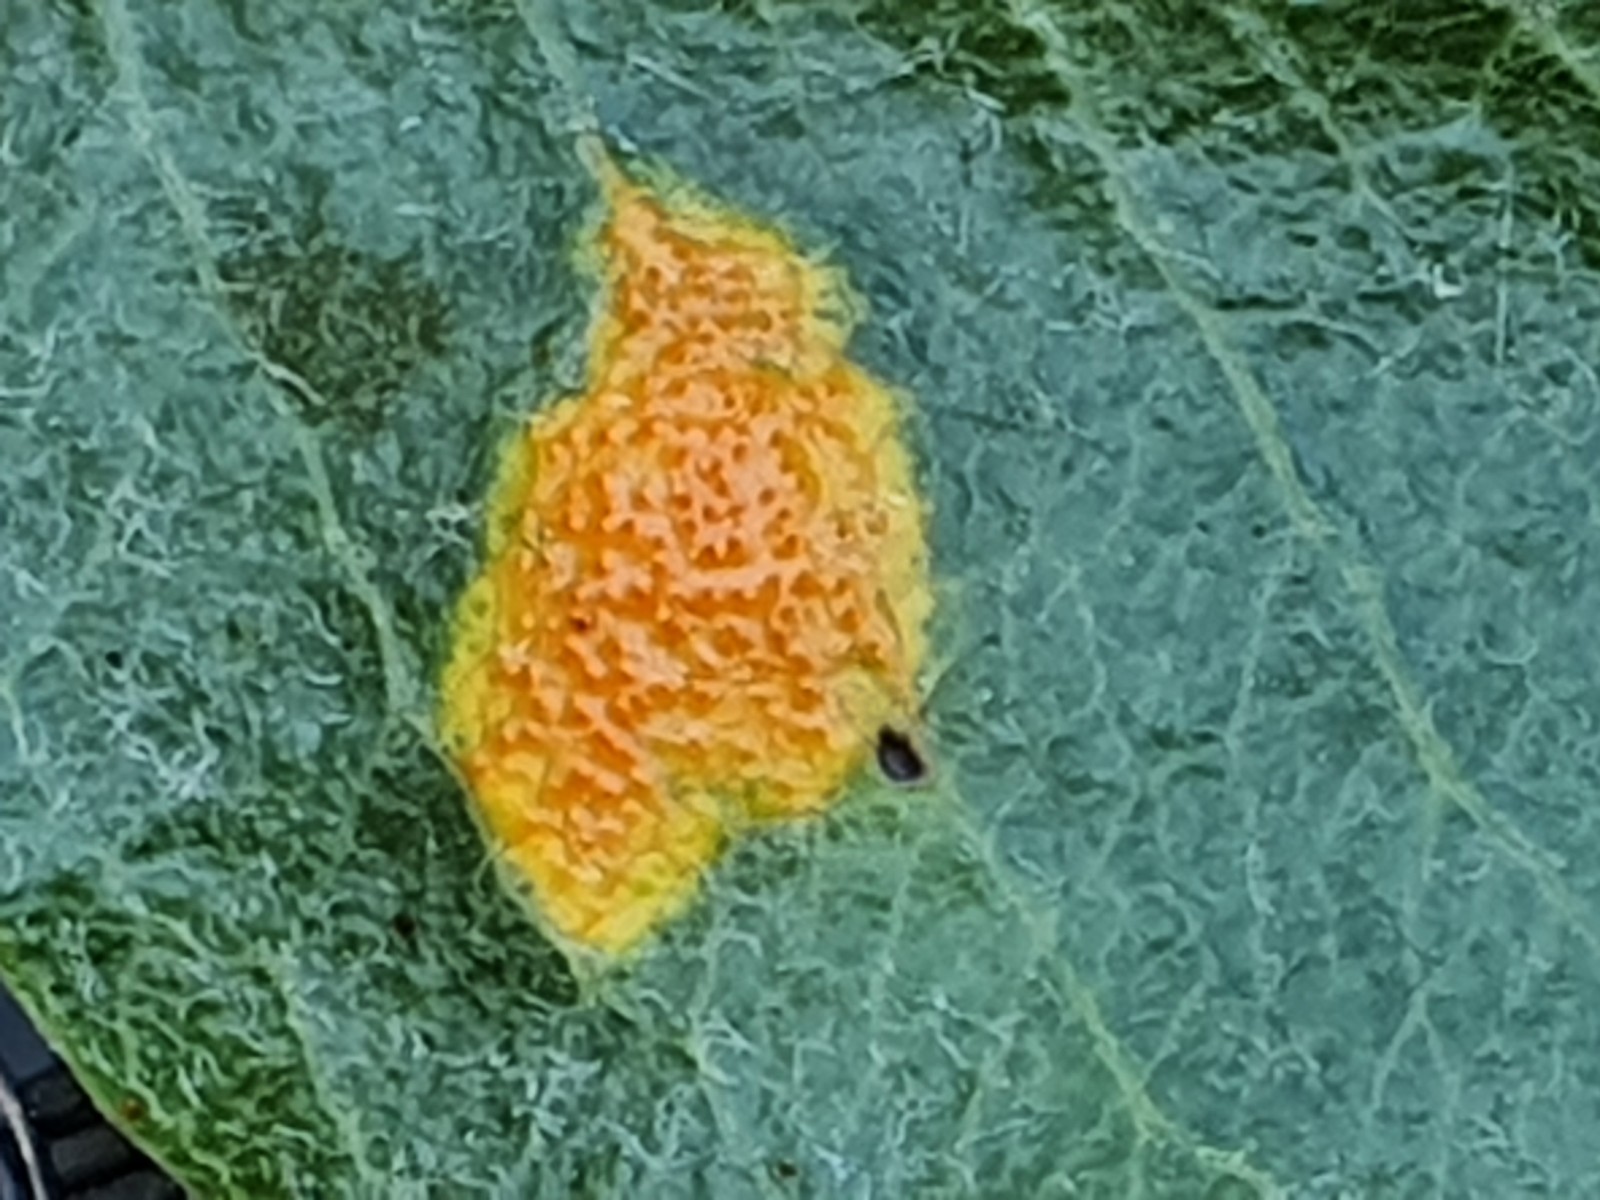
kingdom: Fungi
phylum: Basidiomycota
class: Pucciniomycetes
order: Pucciniales
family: Gymnosporangiaceae
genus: Gymnosporangium
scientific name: Gymnosporangium sabinae
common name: pæregitter-bævrerust
